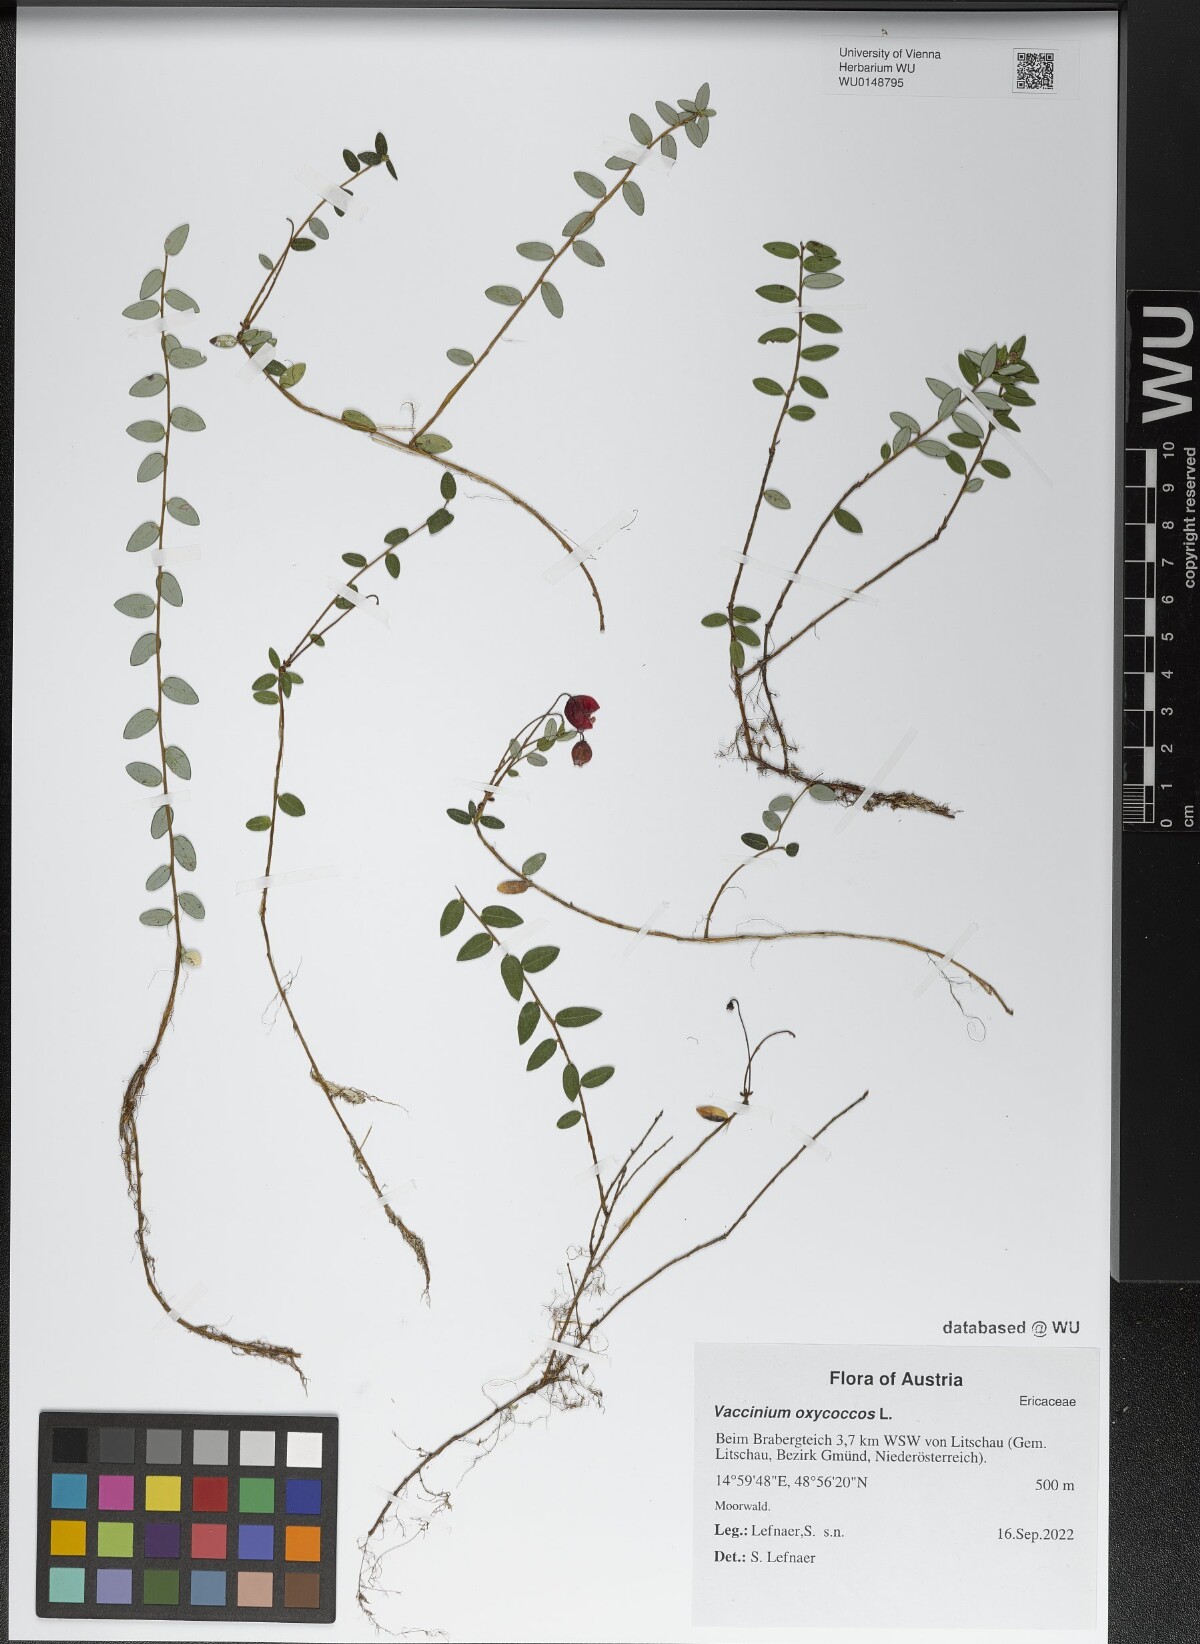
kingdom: Plantae
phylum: Tracheophyta
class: Magnoliopsida
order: Ericales
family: Ericaceae
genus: Vaccinium
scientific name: Vaccinium oxycoccos
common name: Cranberry
